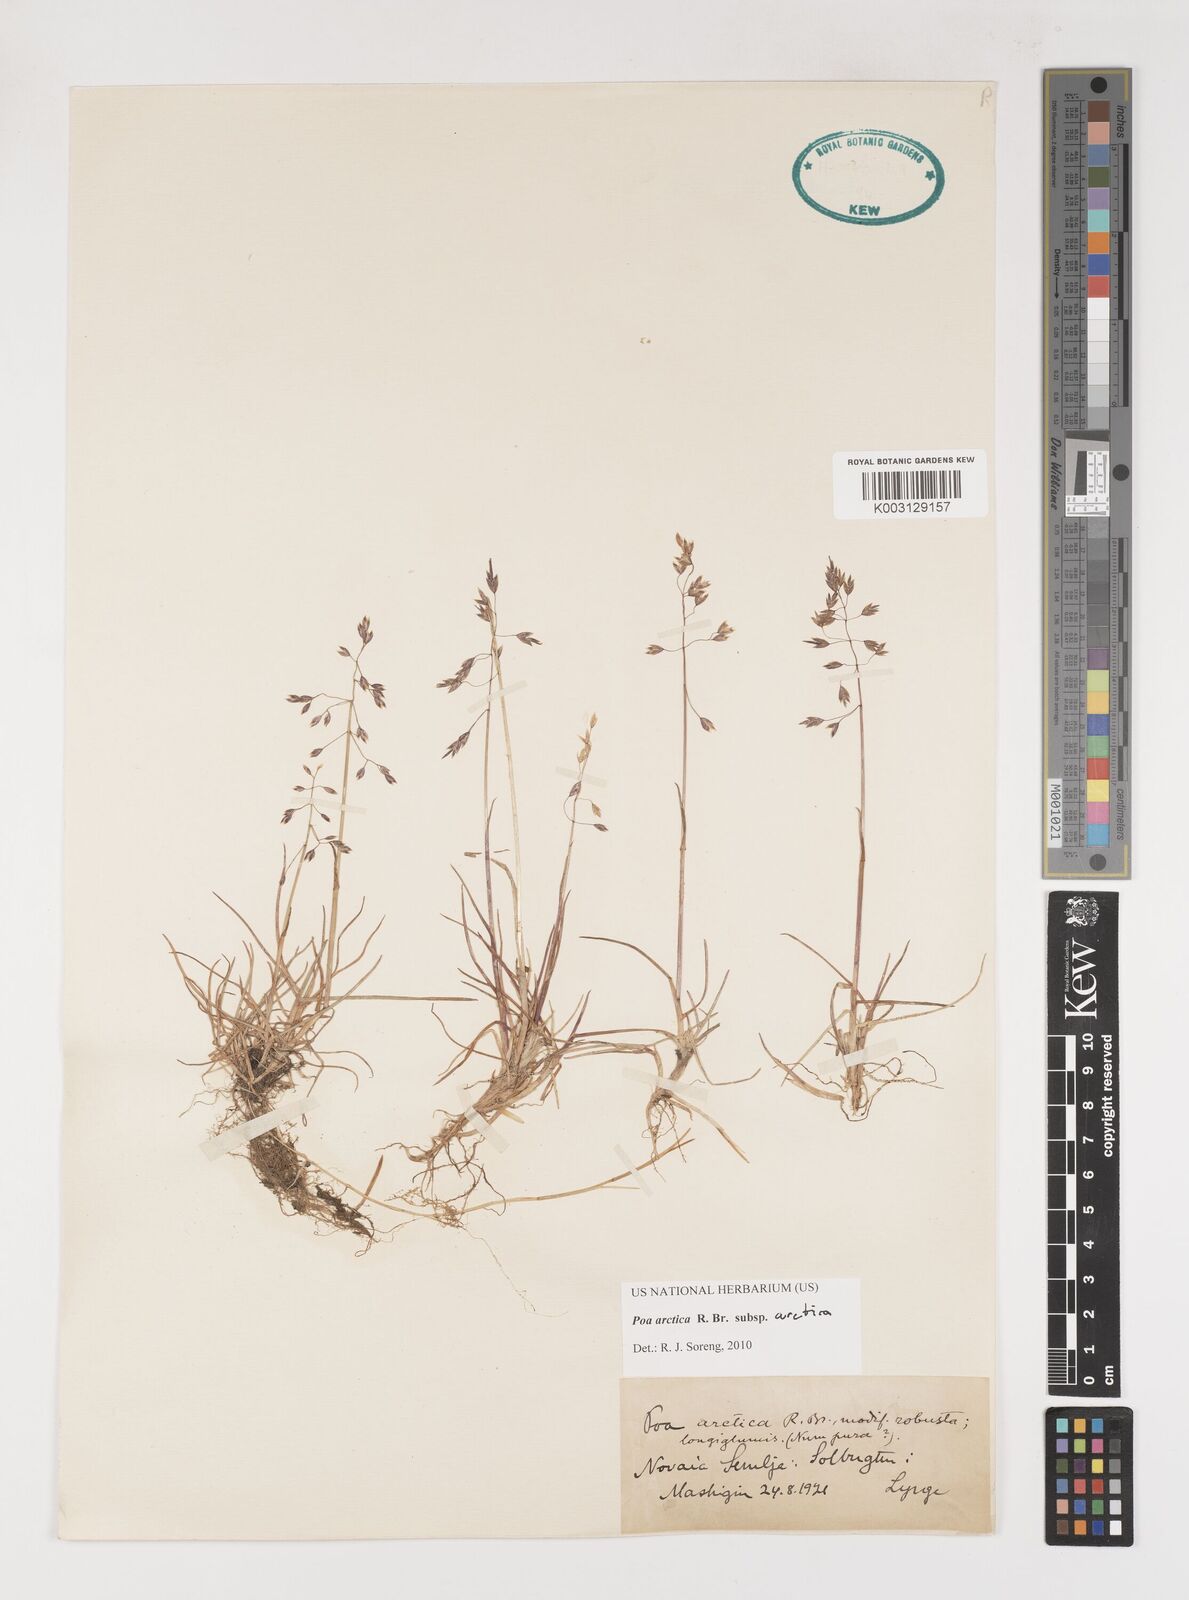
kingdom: Plantae
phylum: Tracheophyta
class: Liliopsida
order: Poales
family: Poaceae
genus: Poa
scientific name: Poa arctica
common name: Arctic bluegrass
